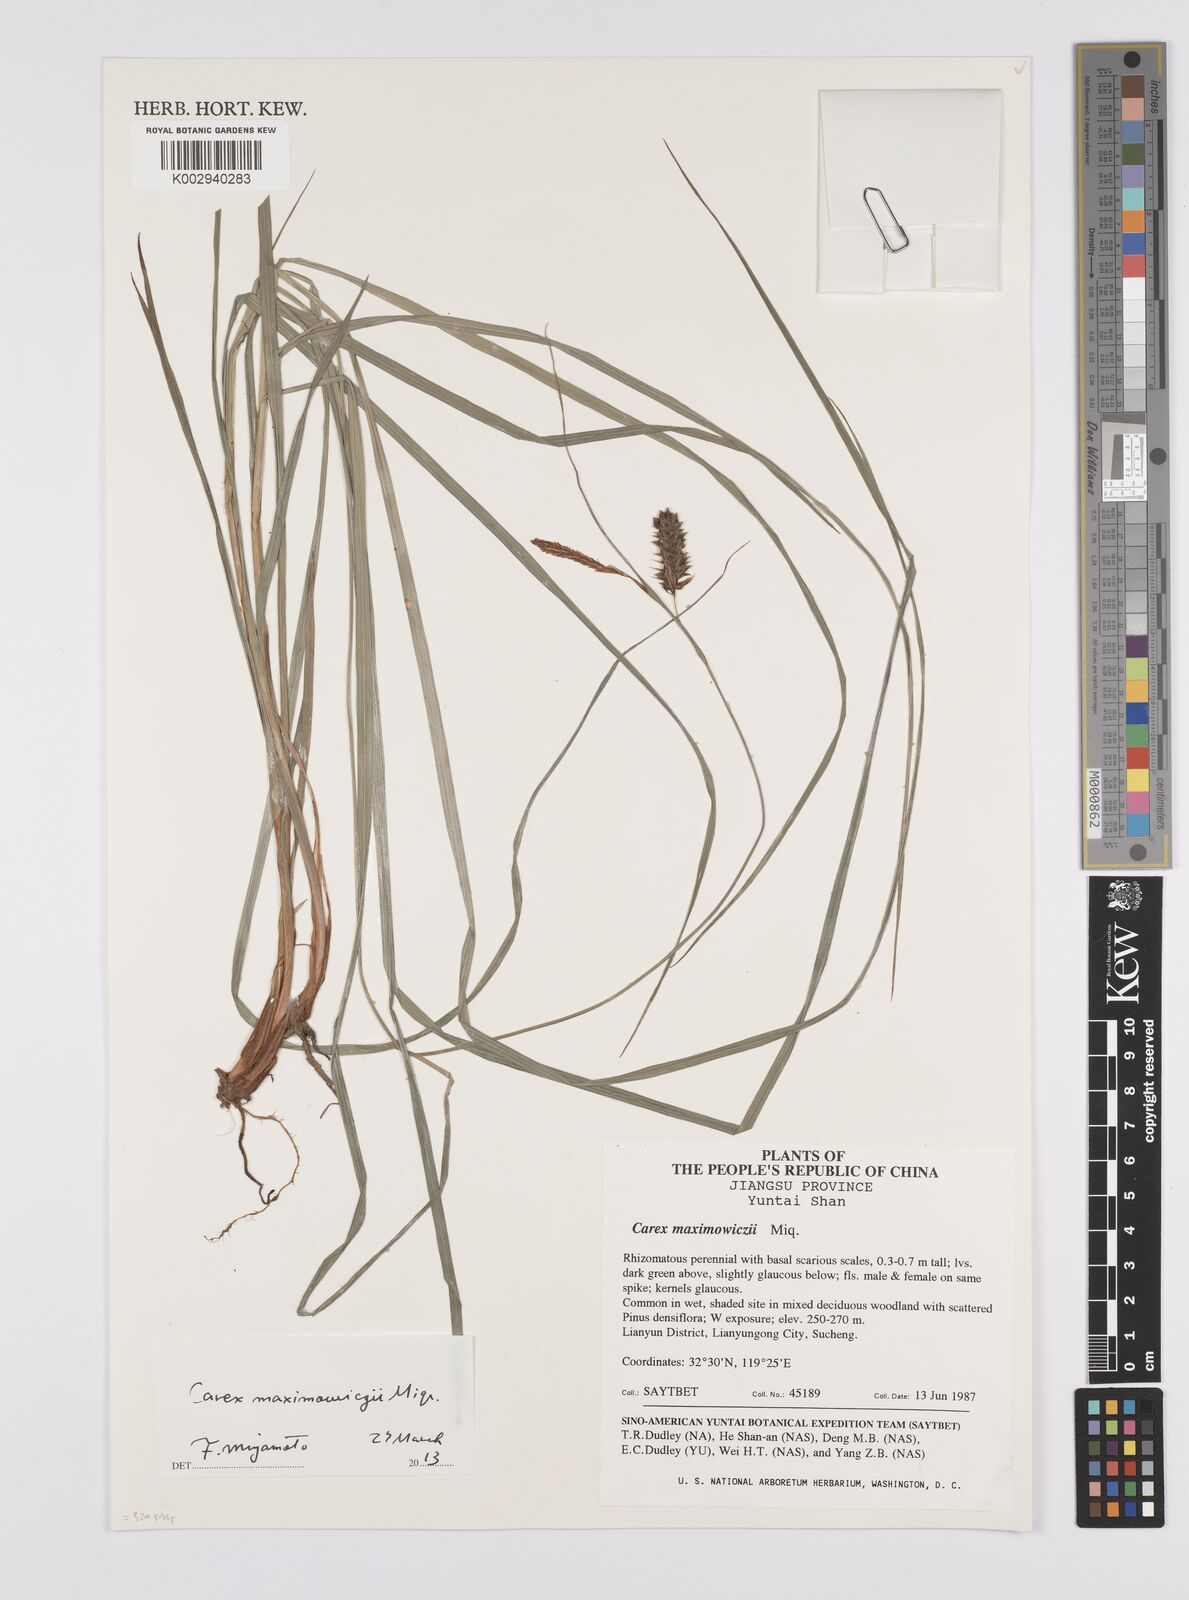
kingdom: Plantae
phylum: Tracheophyta
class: Liliopsida
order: Poales
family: Cyperaceae
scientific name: Cyperaceae
